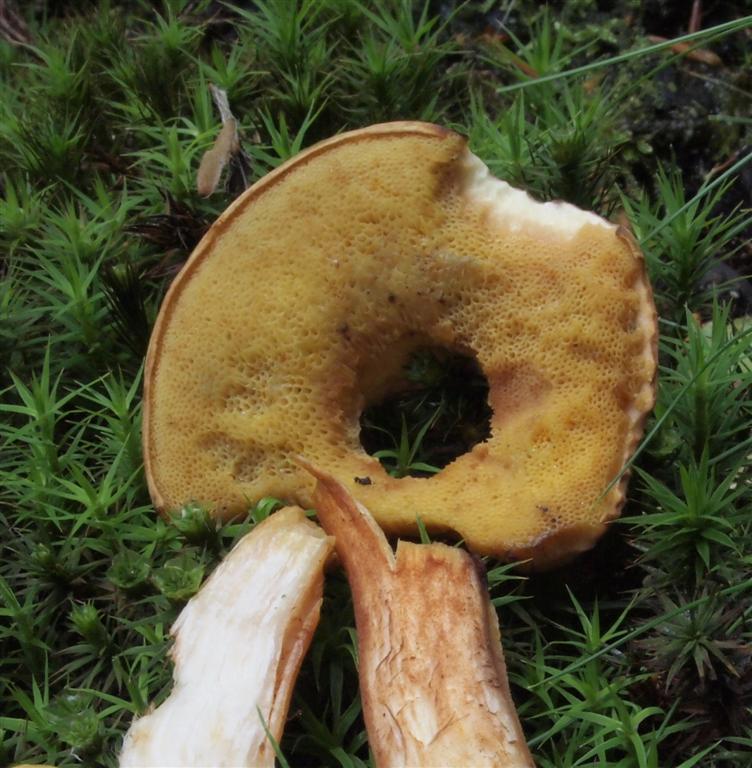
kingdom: Fungi
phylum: Basidiomycota
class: Agaricomycetes
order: Boletales
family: Boletaceae
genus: Xerocomus
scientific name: Xerocomus ferrugineus
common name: vaskeskinds-rørhat
